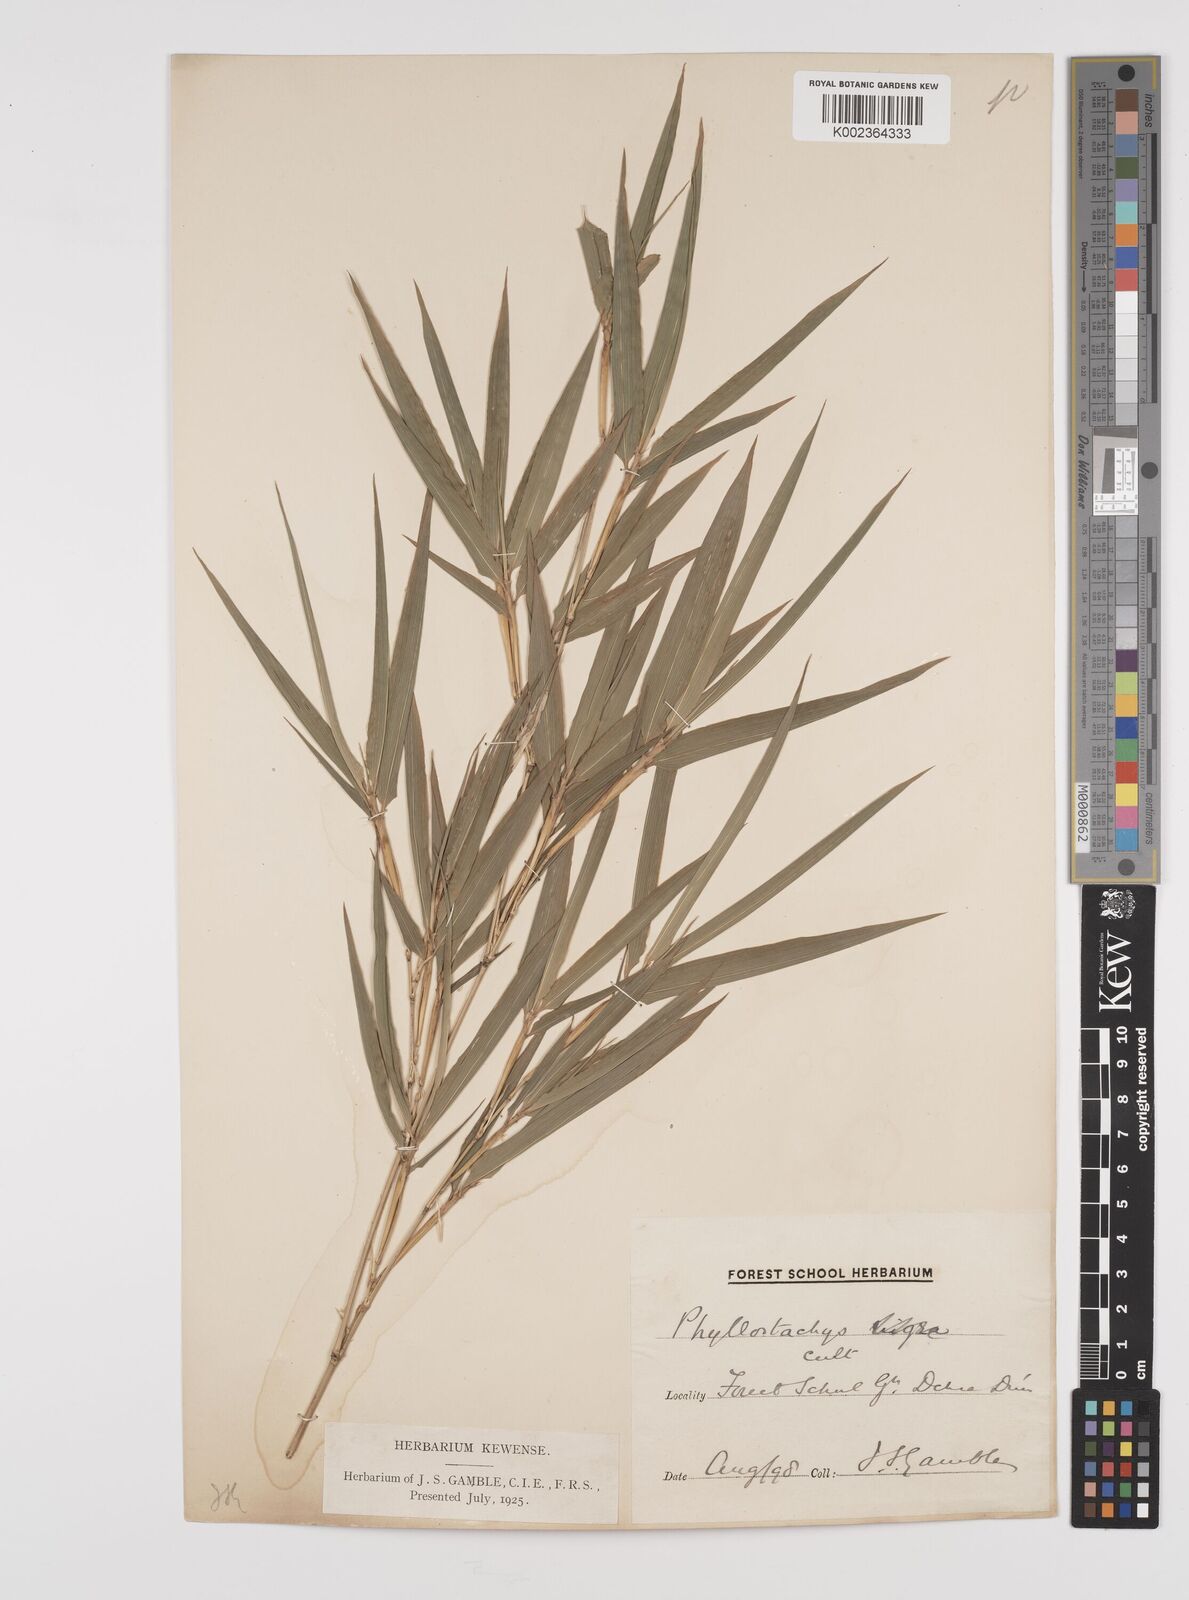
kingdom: Plantae
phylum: Tracheophyta
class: Liliopsida
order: Poales
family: Poaceae
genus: Phyllostachys
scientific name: Phyllostachys reticulata
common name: Bamboo
